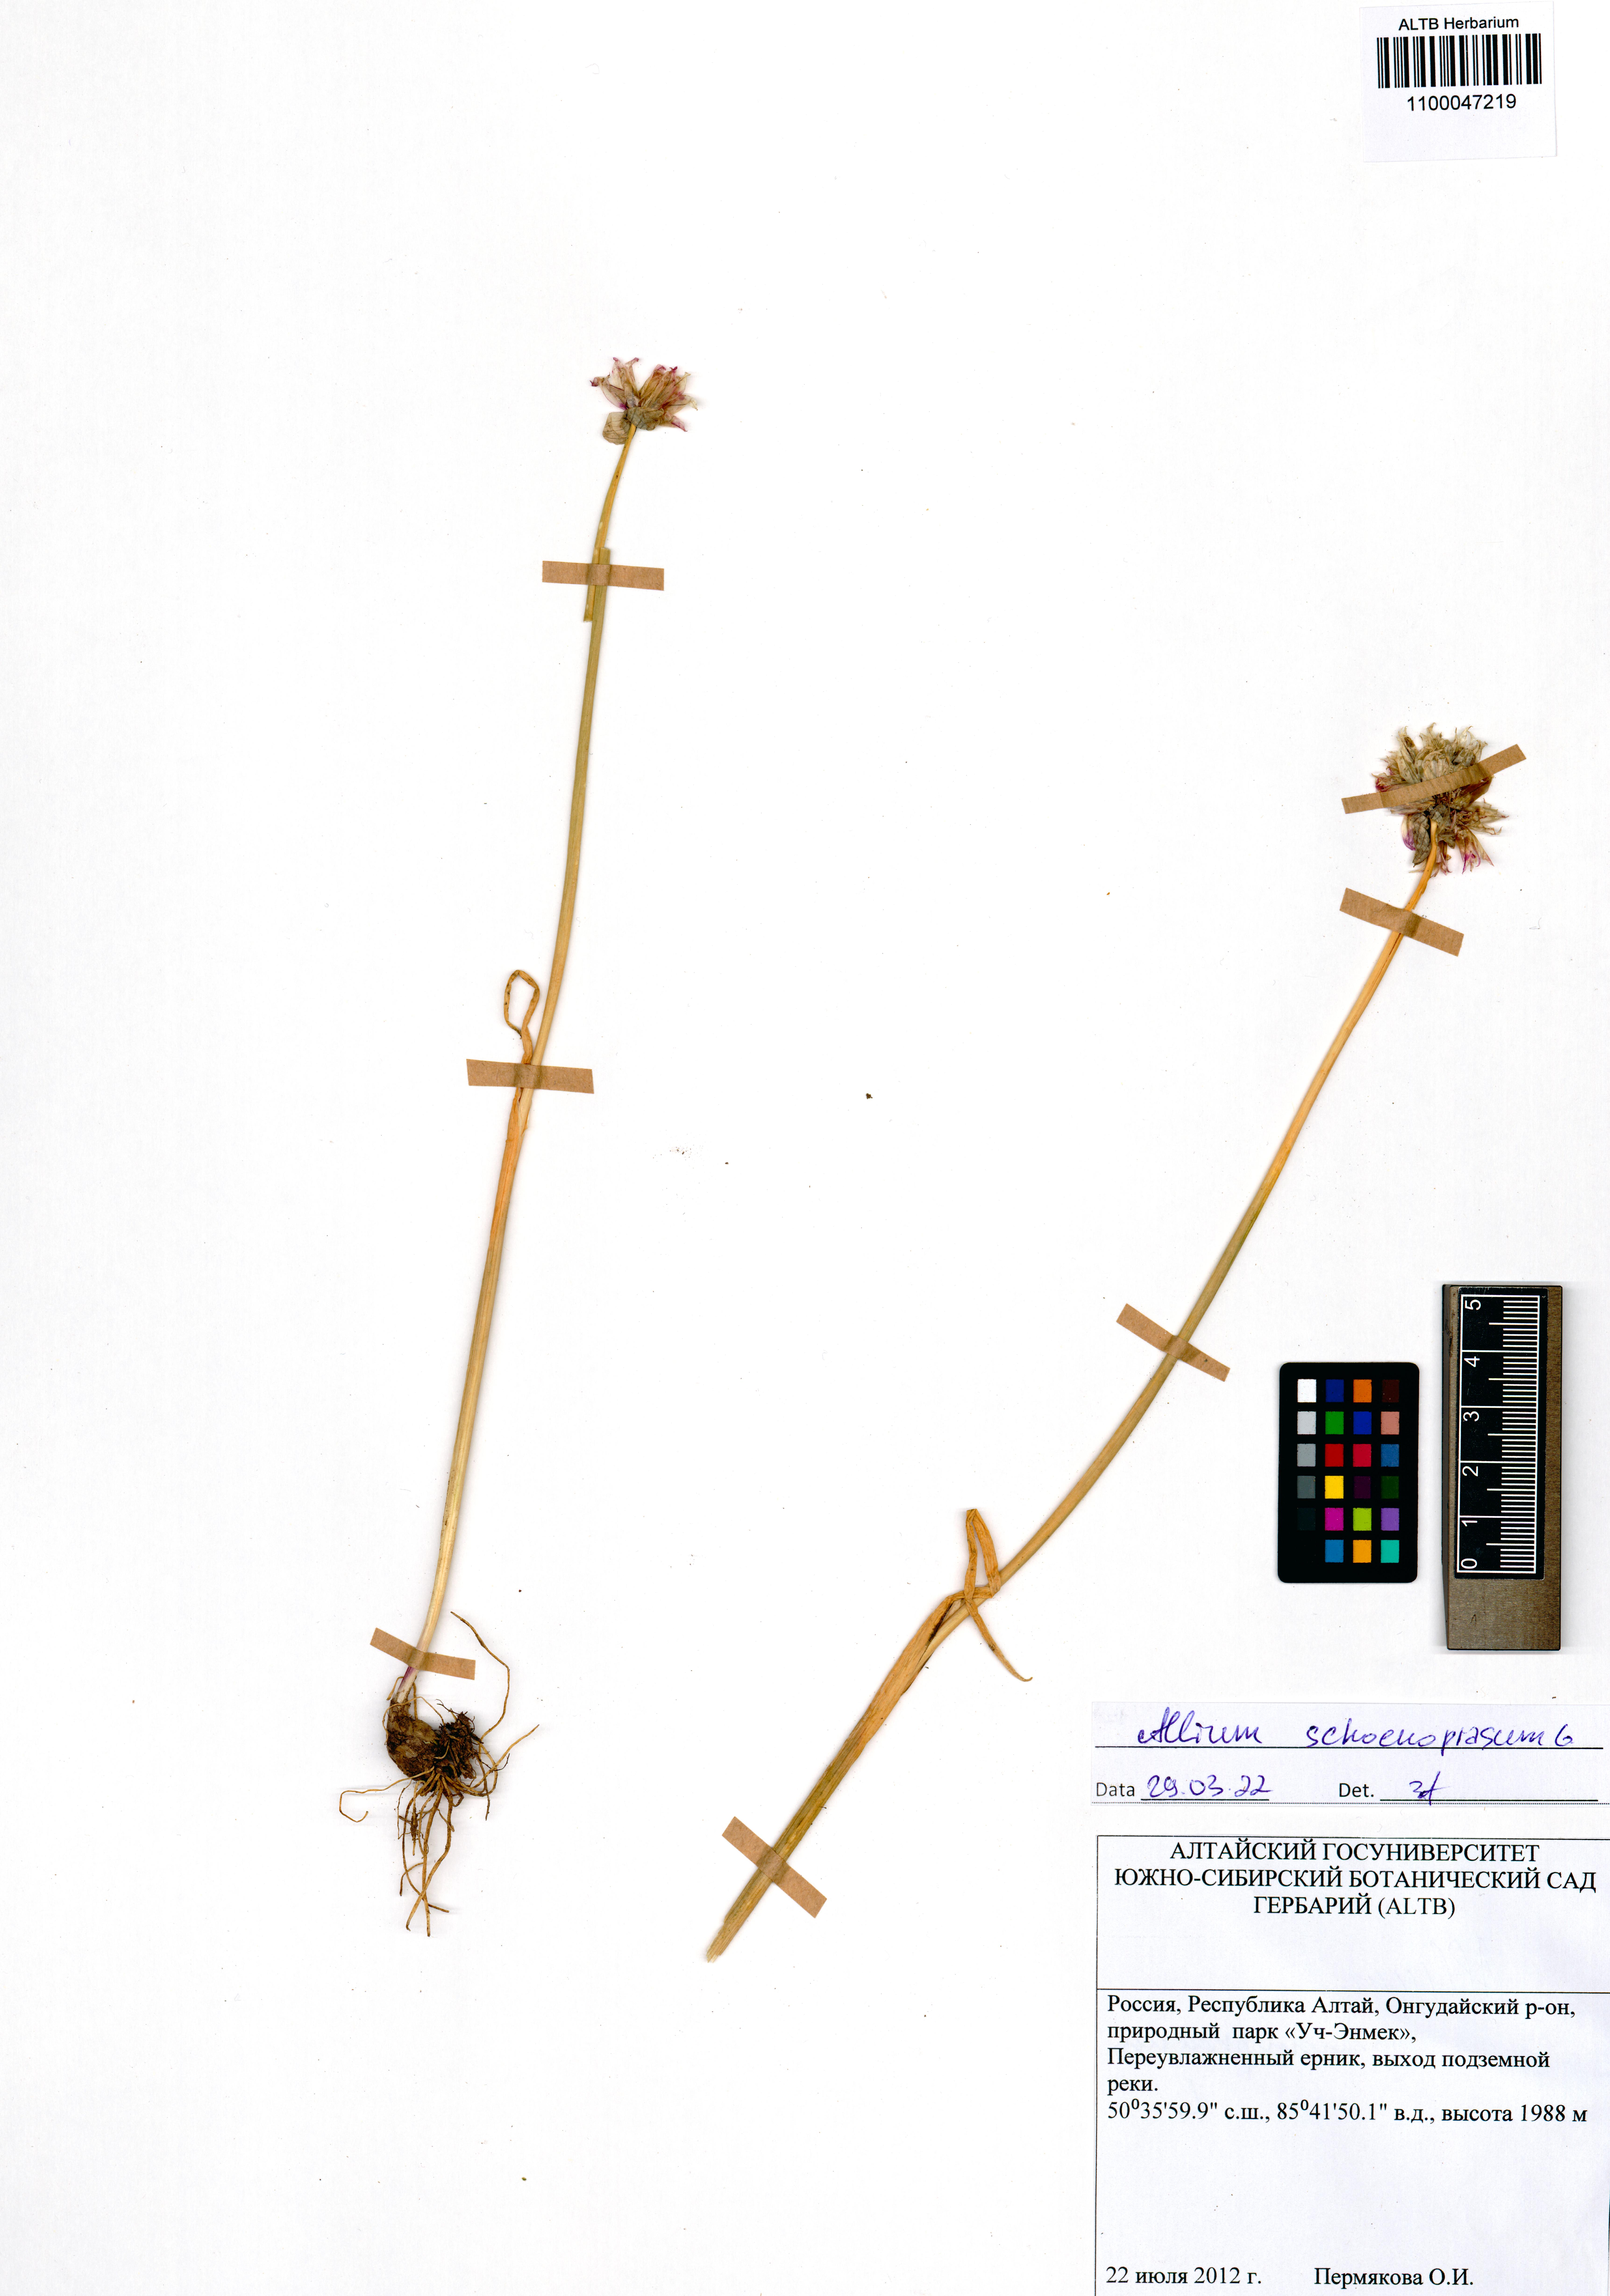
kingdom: Plantae
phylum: Tracheophyta
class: Liliopsida
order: Asparagales
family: Amaryllidaceae
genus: Allium
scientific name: Allium schoenoprasum
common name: Chives
